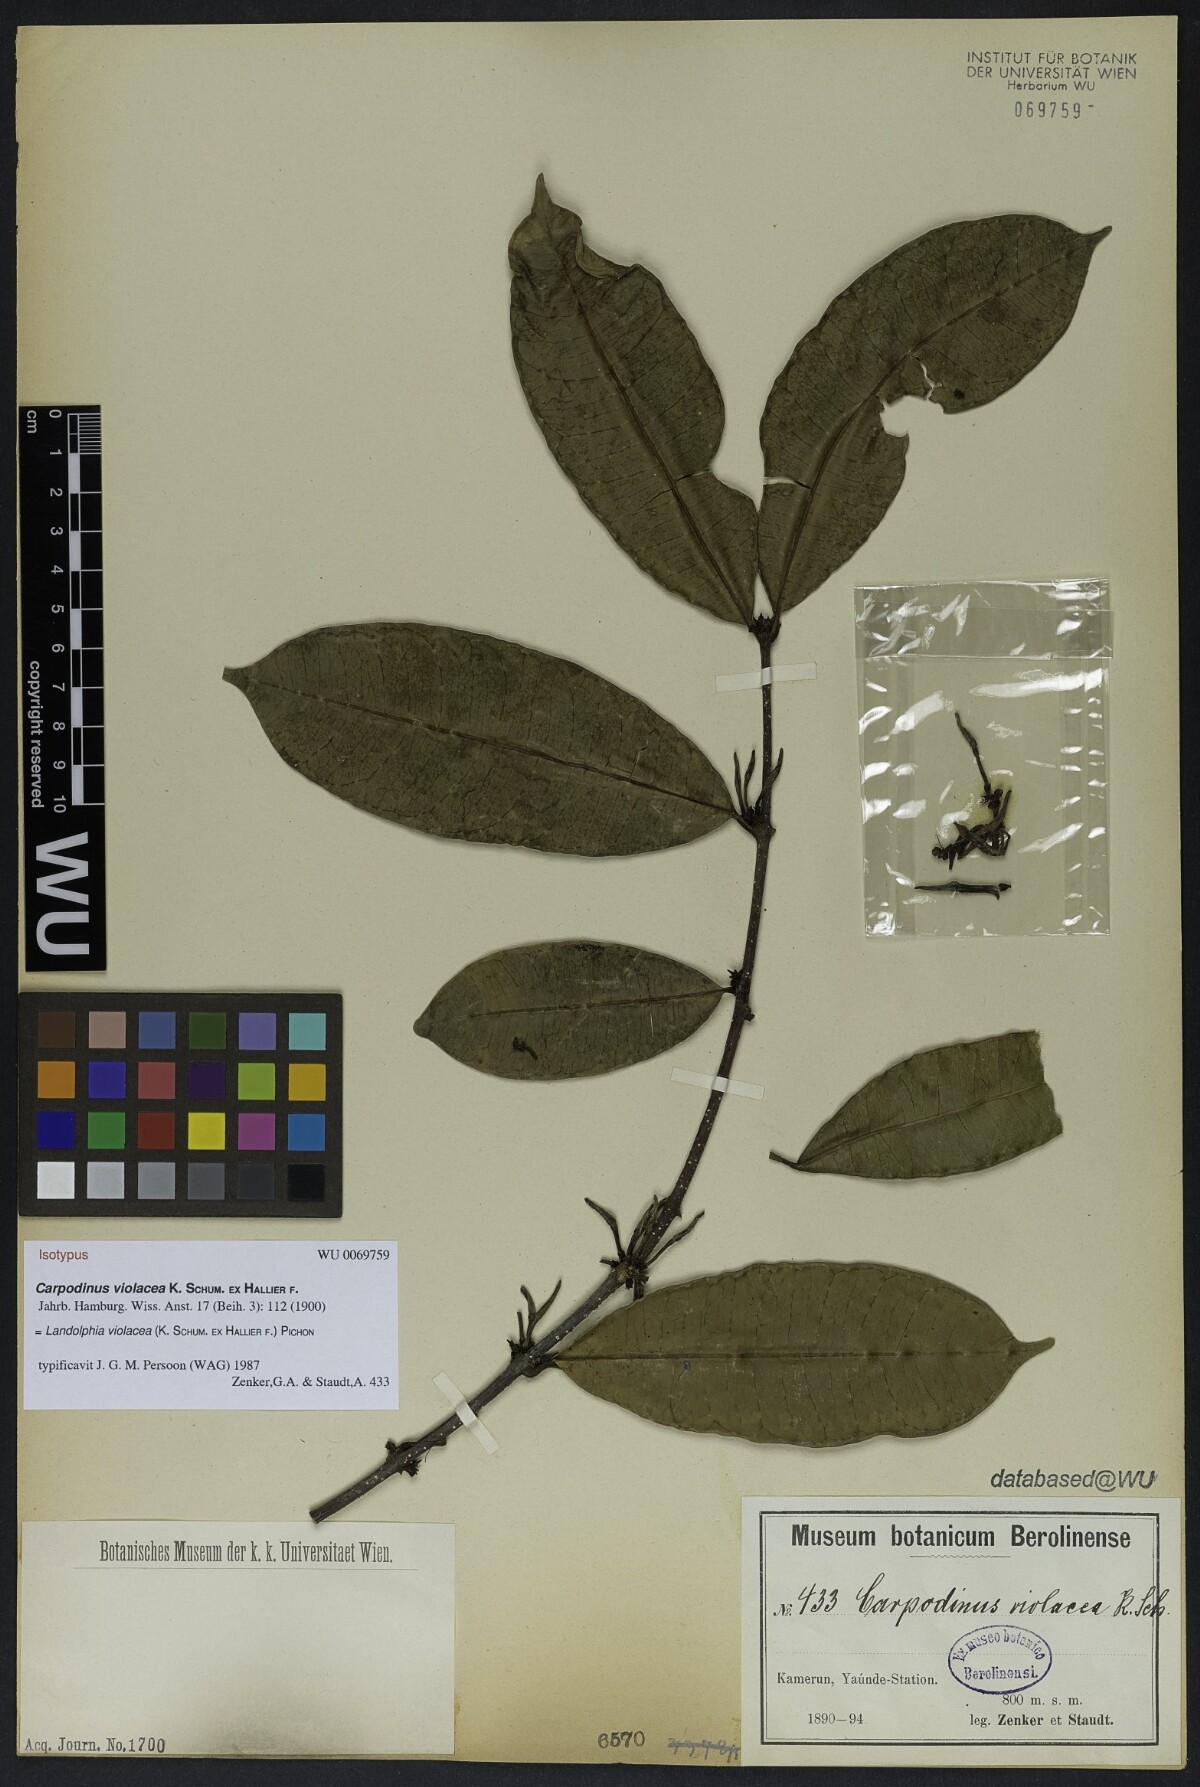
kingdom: Plantae
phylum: Tracheophyta
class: Magnoliopsida
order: Gentianales
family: Apocynaceae
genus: Landolphia
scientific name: Landolphia violacea
